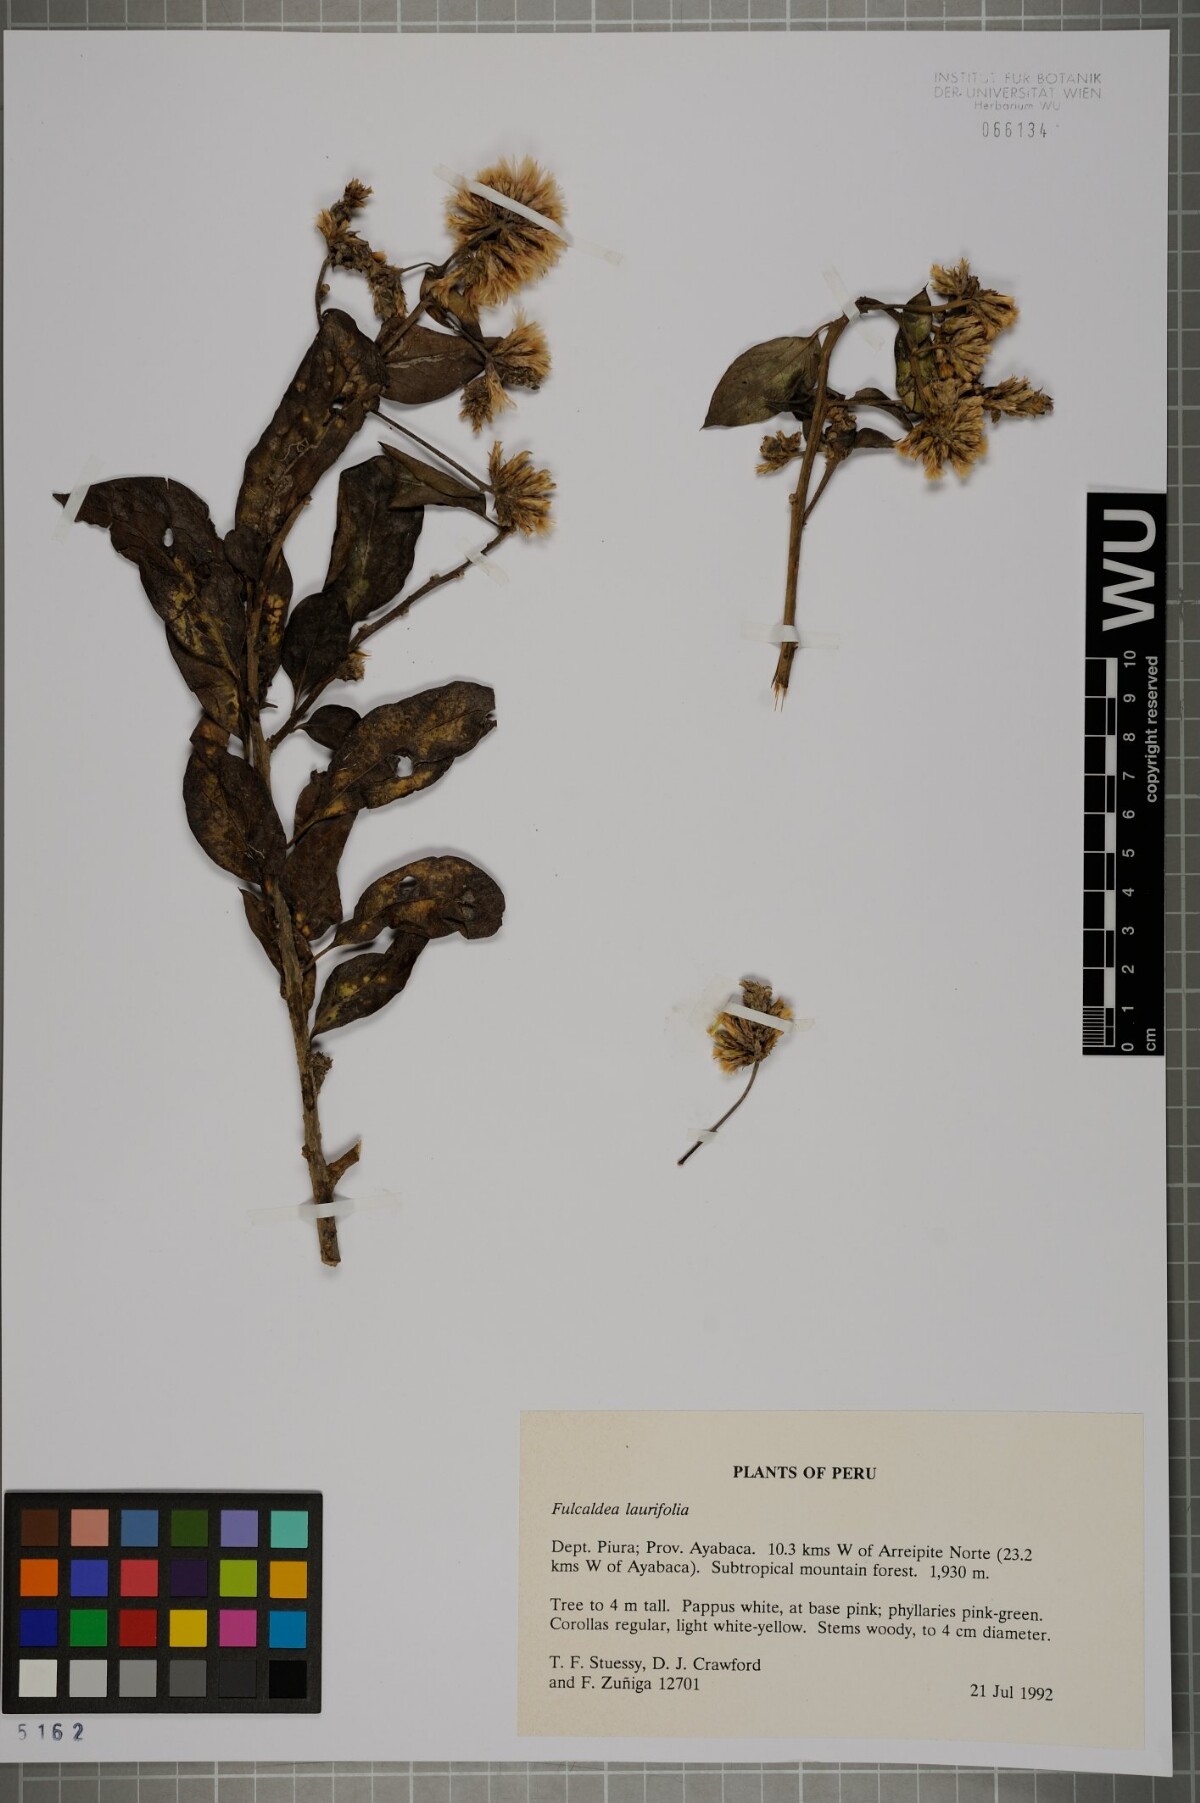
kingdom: Plantae
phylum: Tracheophyta
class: Magnoliopsida
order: Asterales
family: Asteraceae
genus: Fulcaldea
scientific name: Fulcaldea laurifolia
